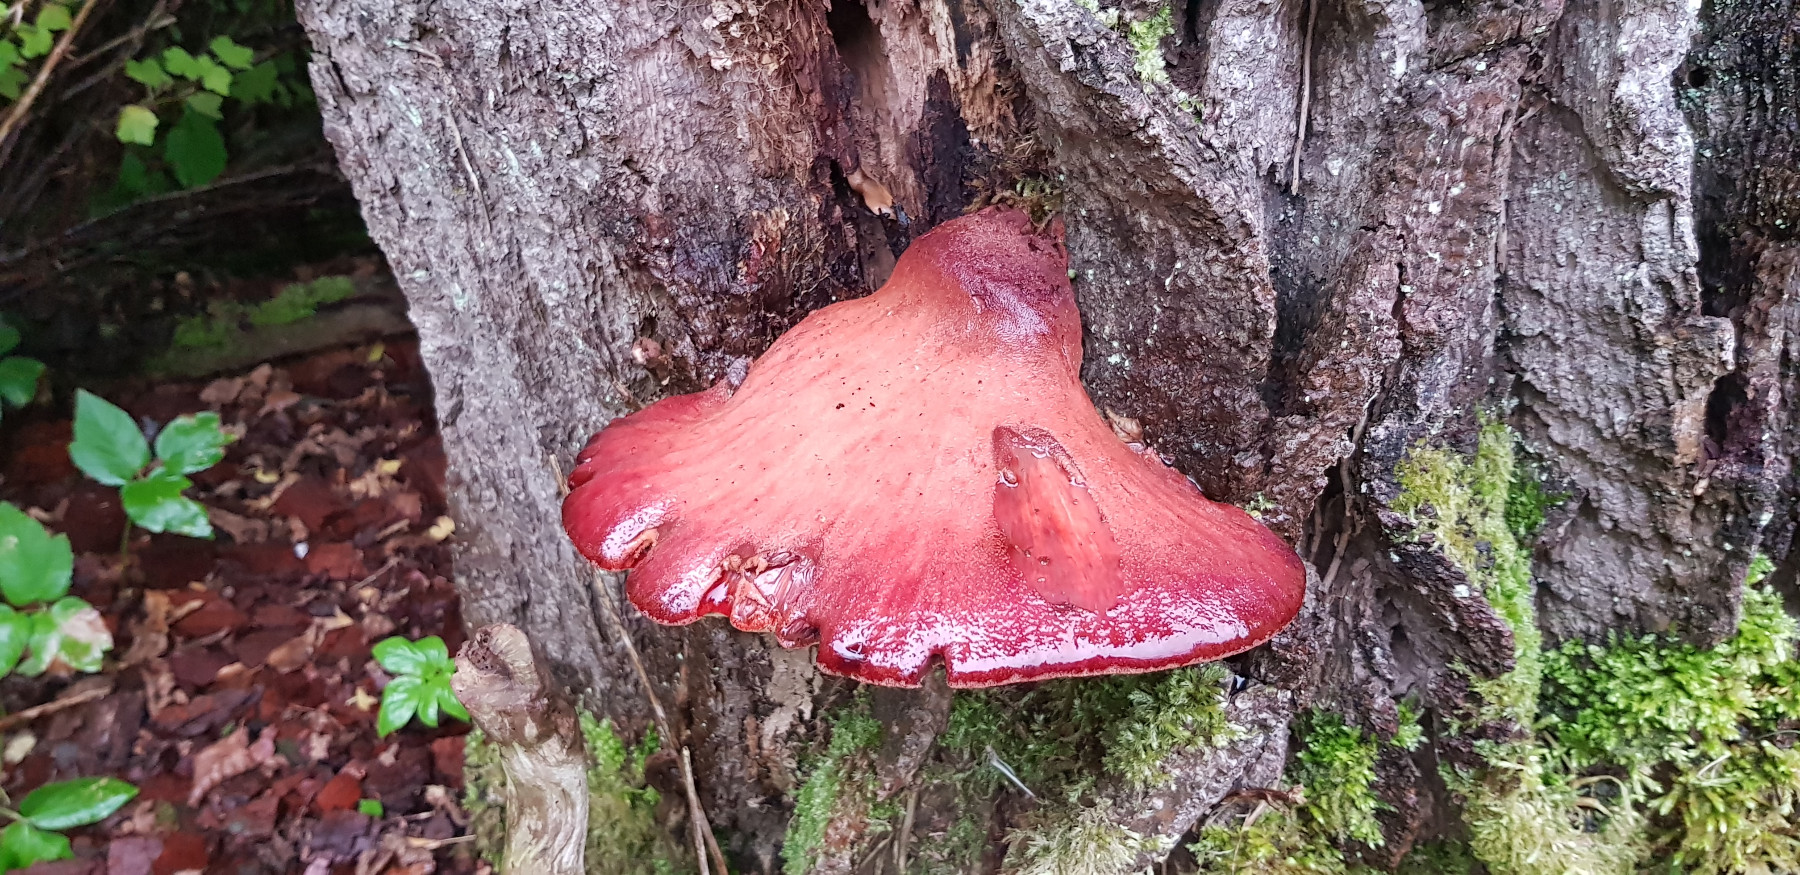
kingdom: Fungi
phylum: Basidiomycota
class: Agaricomycetes
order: Agaricales
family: Fistulinaceae
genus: Fistulina
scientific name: Fistulina hepatica
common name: oksetunge
